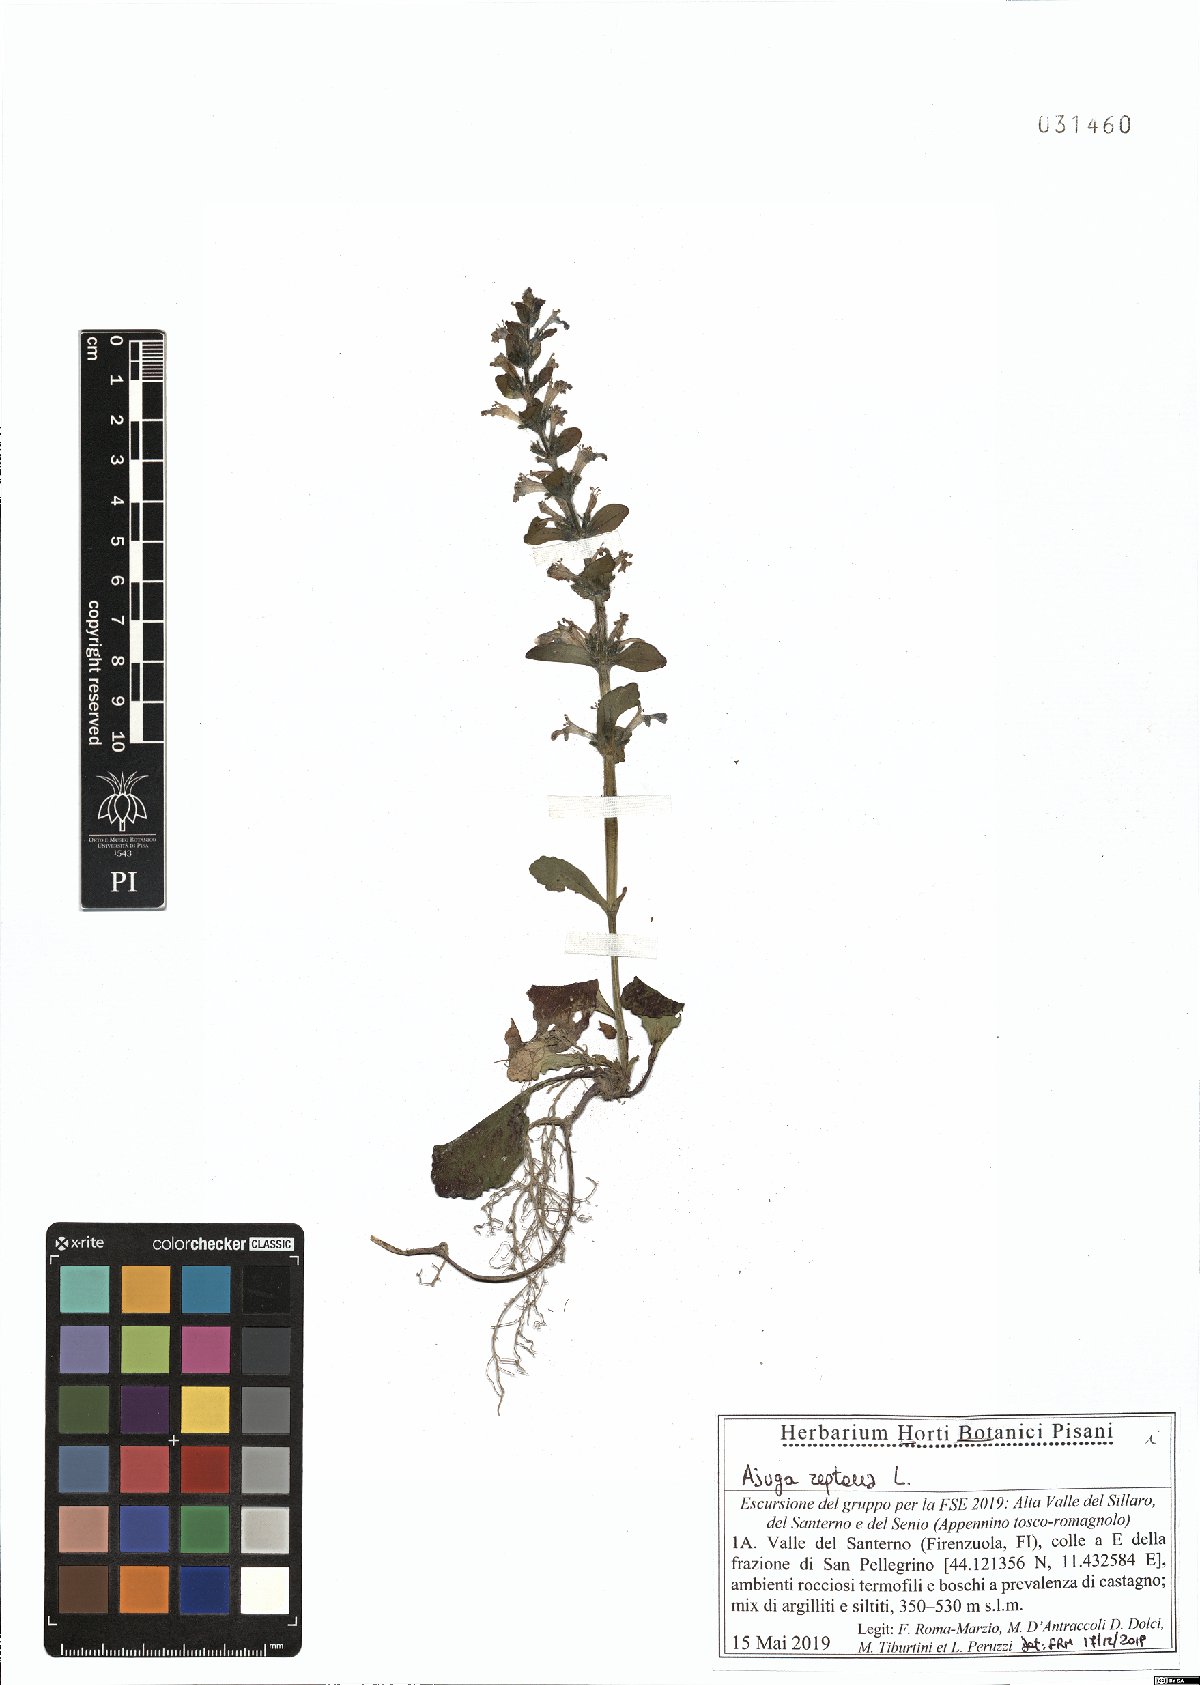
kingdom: Plantae
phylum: Tracheophyta
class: Magnoliopsida
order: Lamiales
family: Lamiaceae
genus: Ajuga
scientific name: Ajuga reptans
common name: Bugle
